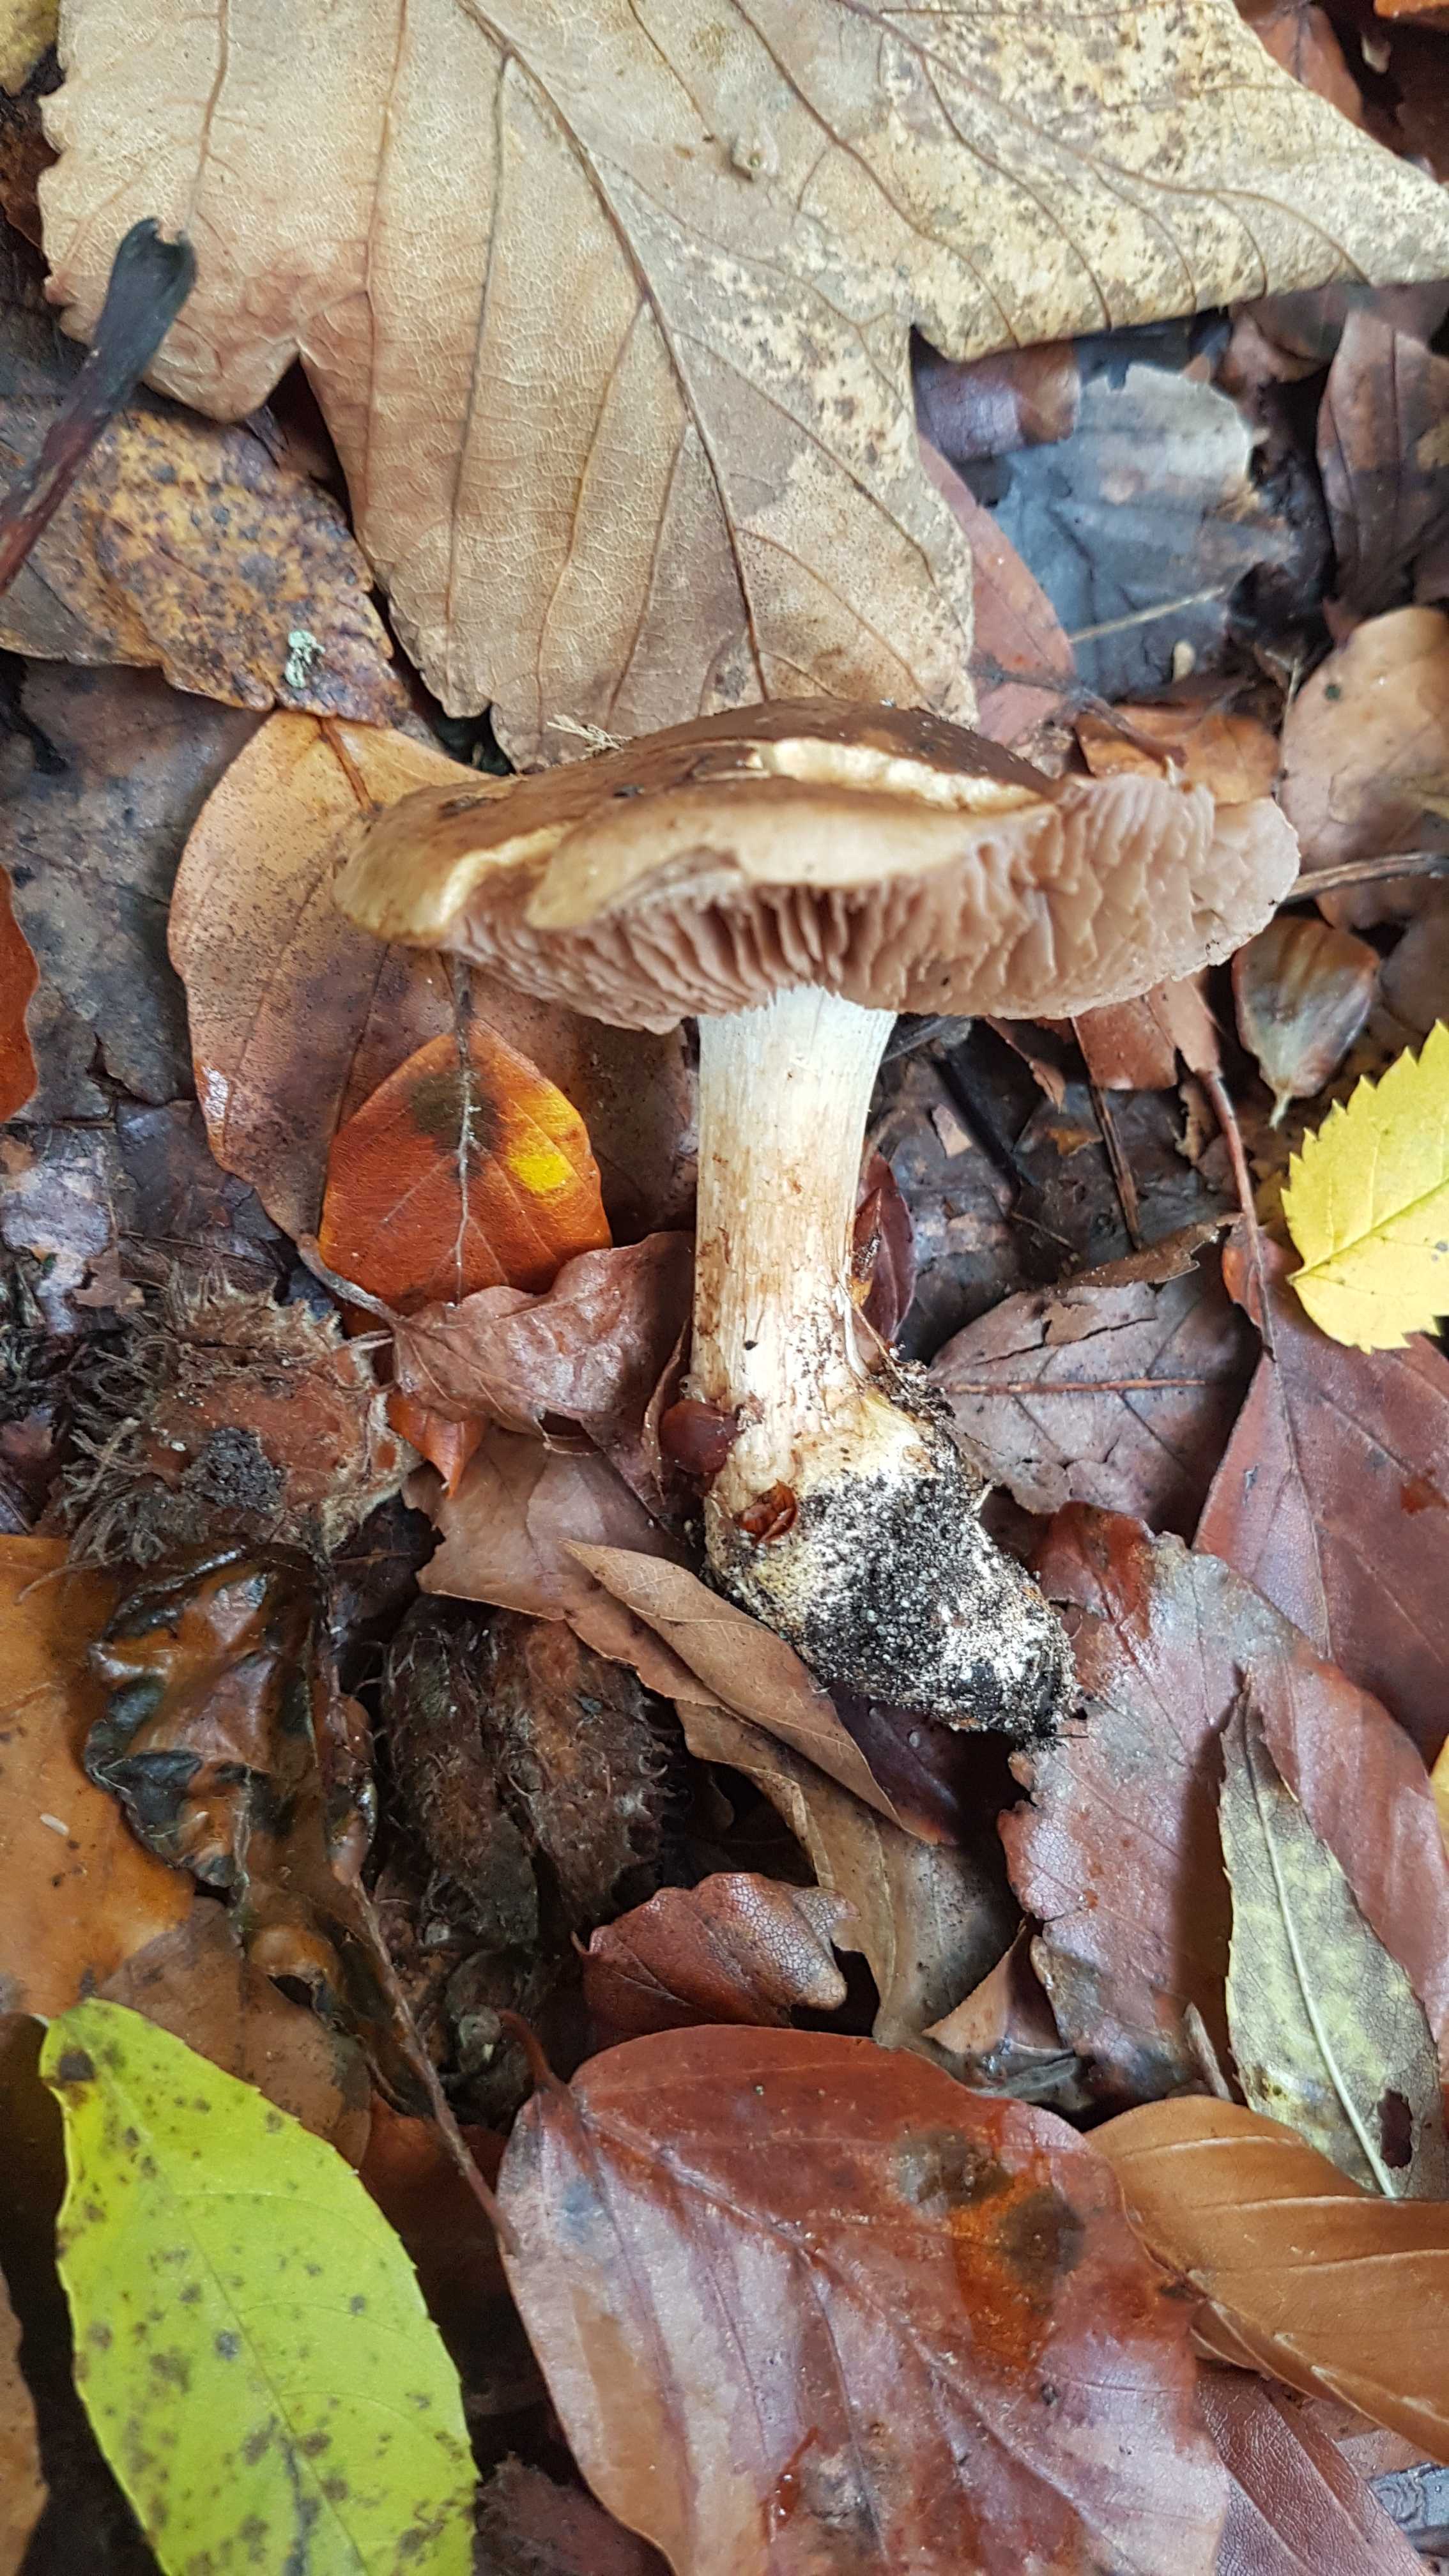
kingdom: Fungi
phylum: Basidiomycota
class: Agaricomycetes
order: Agaricales
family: Cortinariaceae
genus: Calonarius
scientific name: Calonarius aureocalceolatus
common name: spidsknoldet Slørhat
